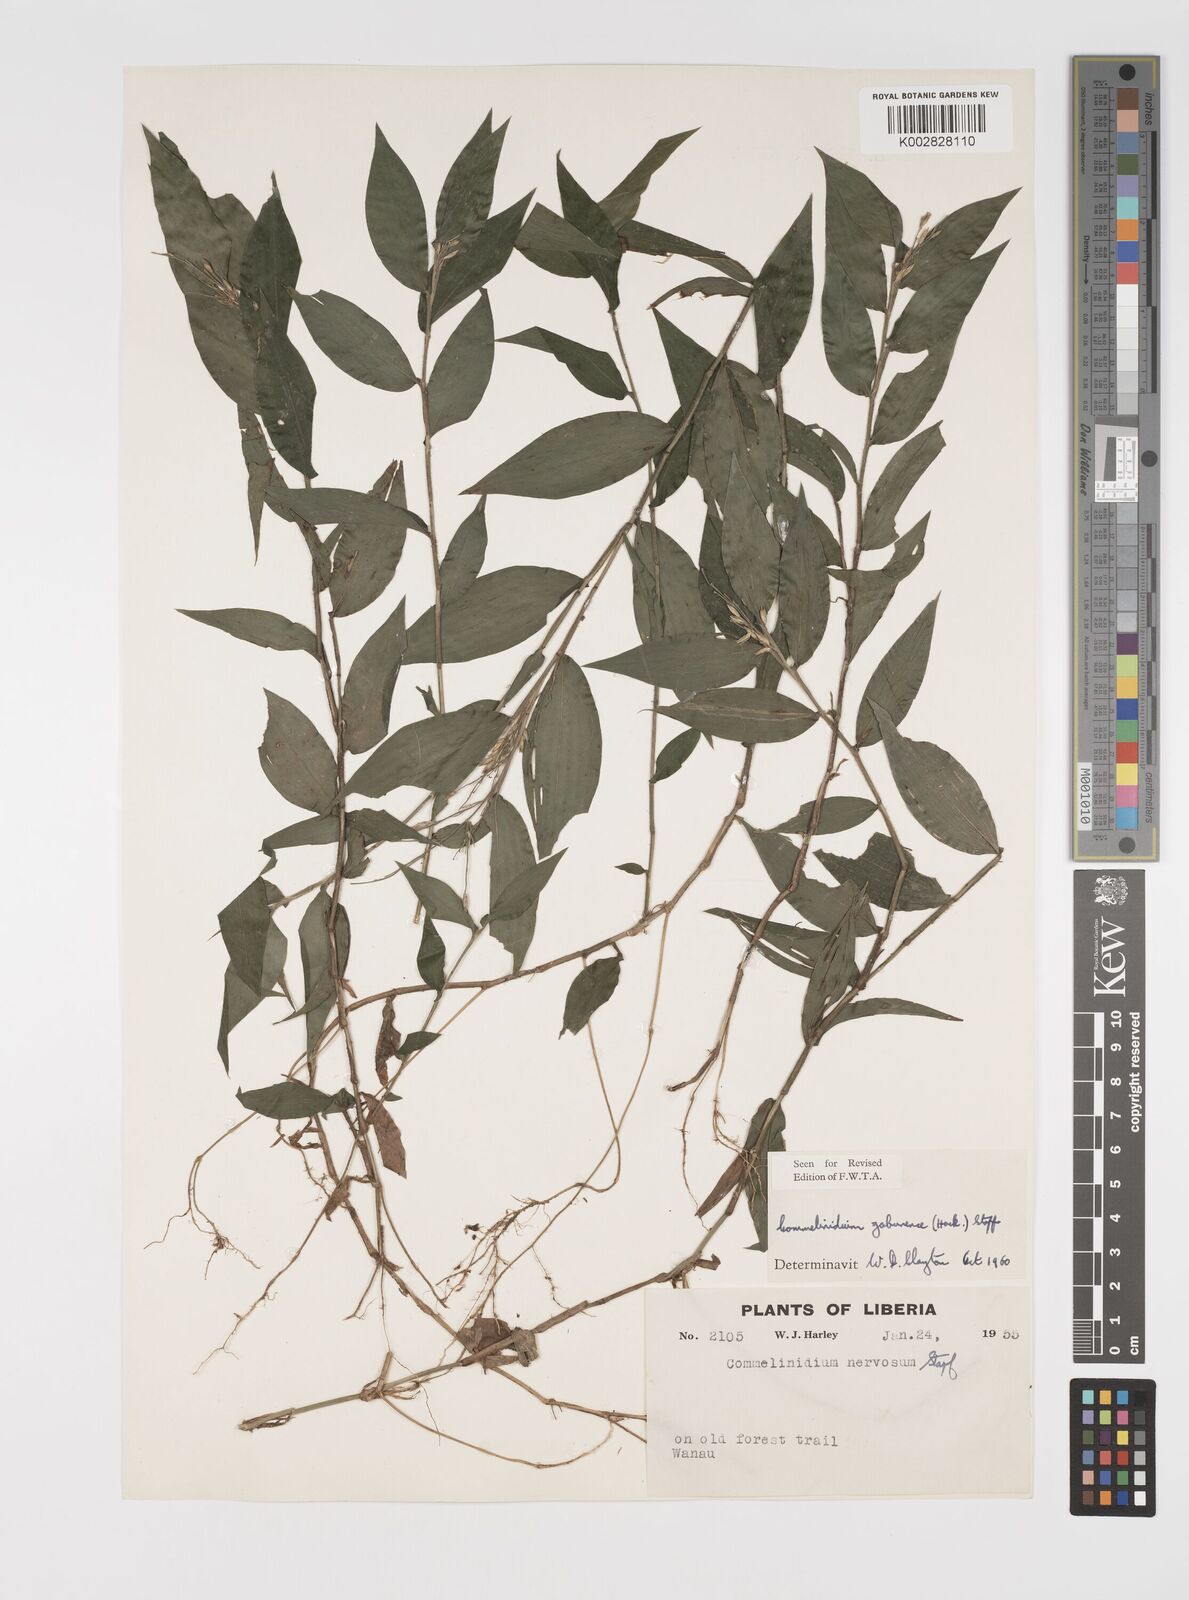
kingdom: Plantae
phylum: Tracheophyta
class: Liliopsida
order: Poales
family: Poaceae
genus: Acroceras
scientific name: Acroceras gabunense
